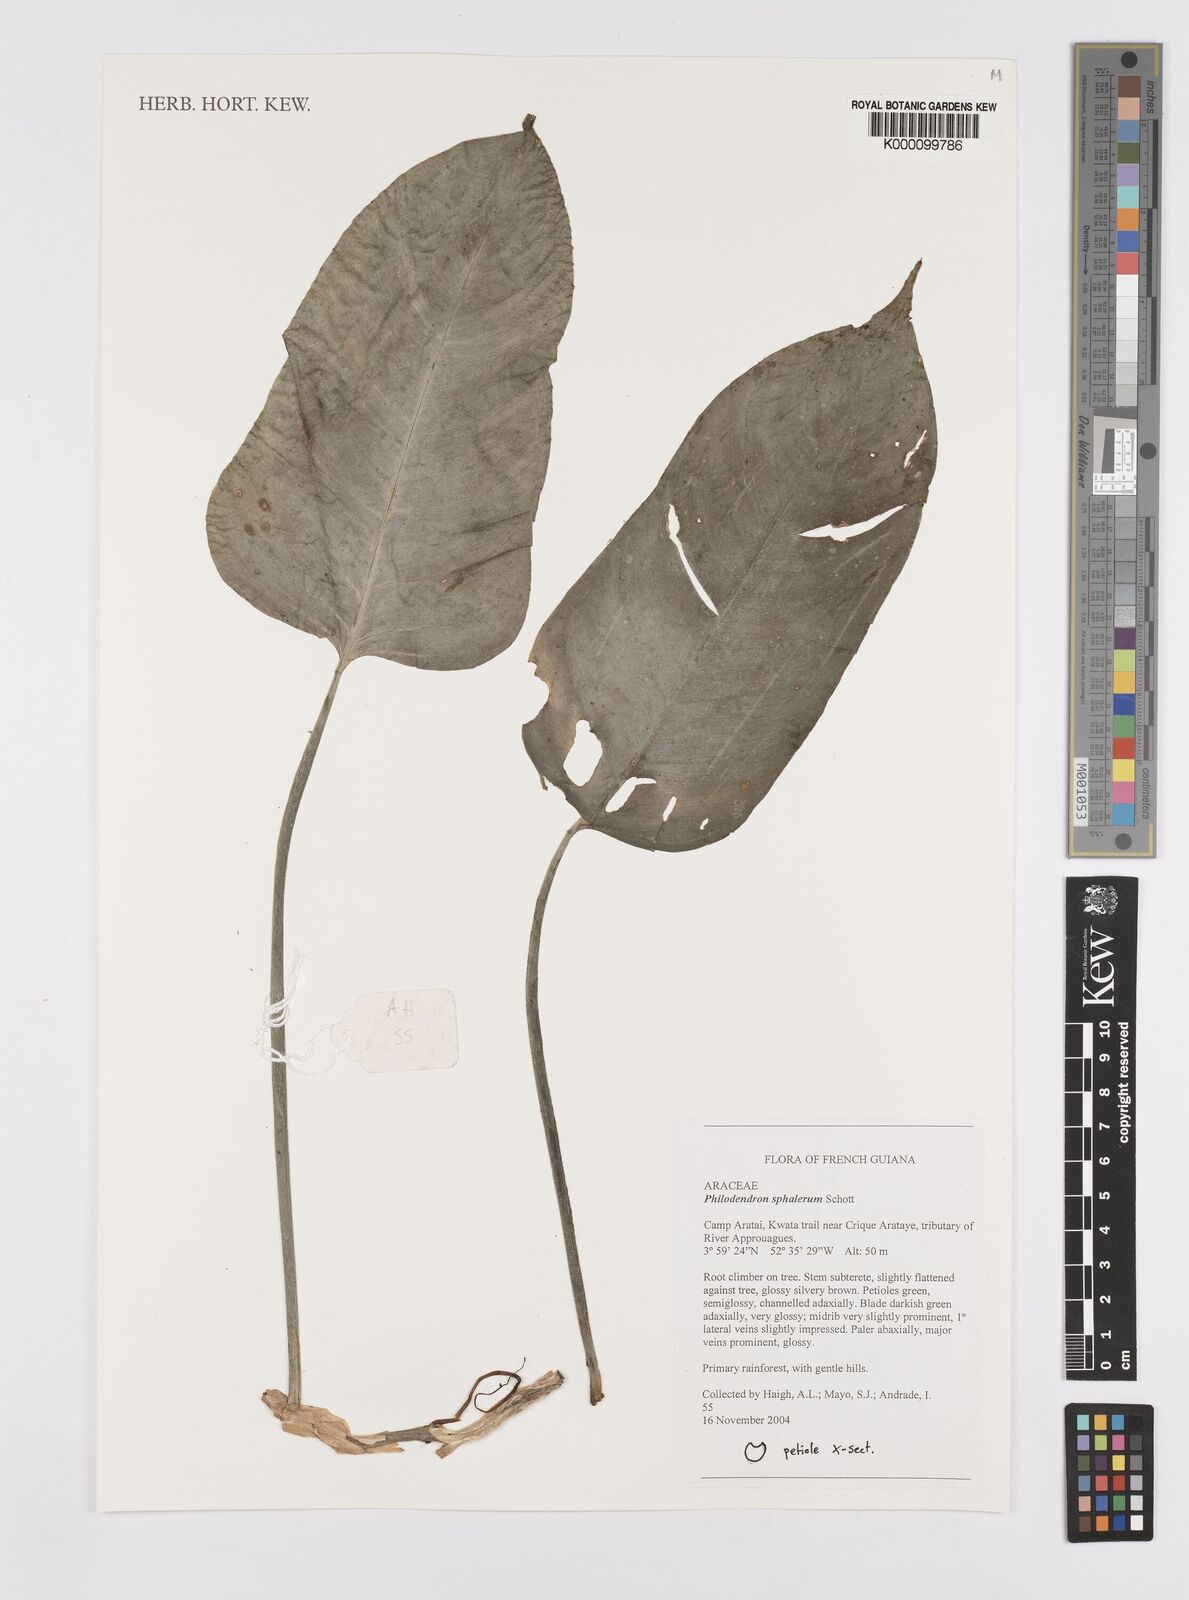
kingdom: Plantae
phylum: Tracheophyta
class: Liliopsida
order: Alismatales
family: Araceae
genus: Philodendron
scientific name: Philodendron sphalerum
